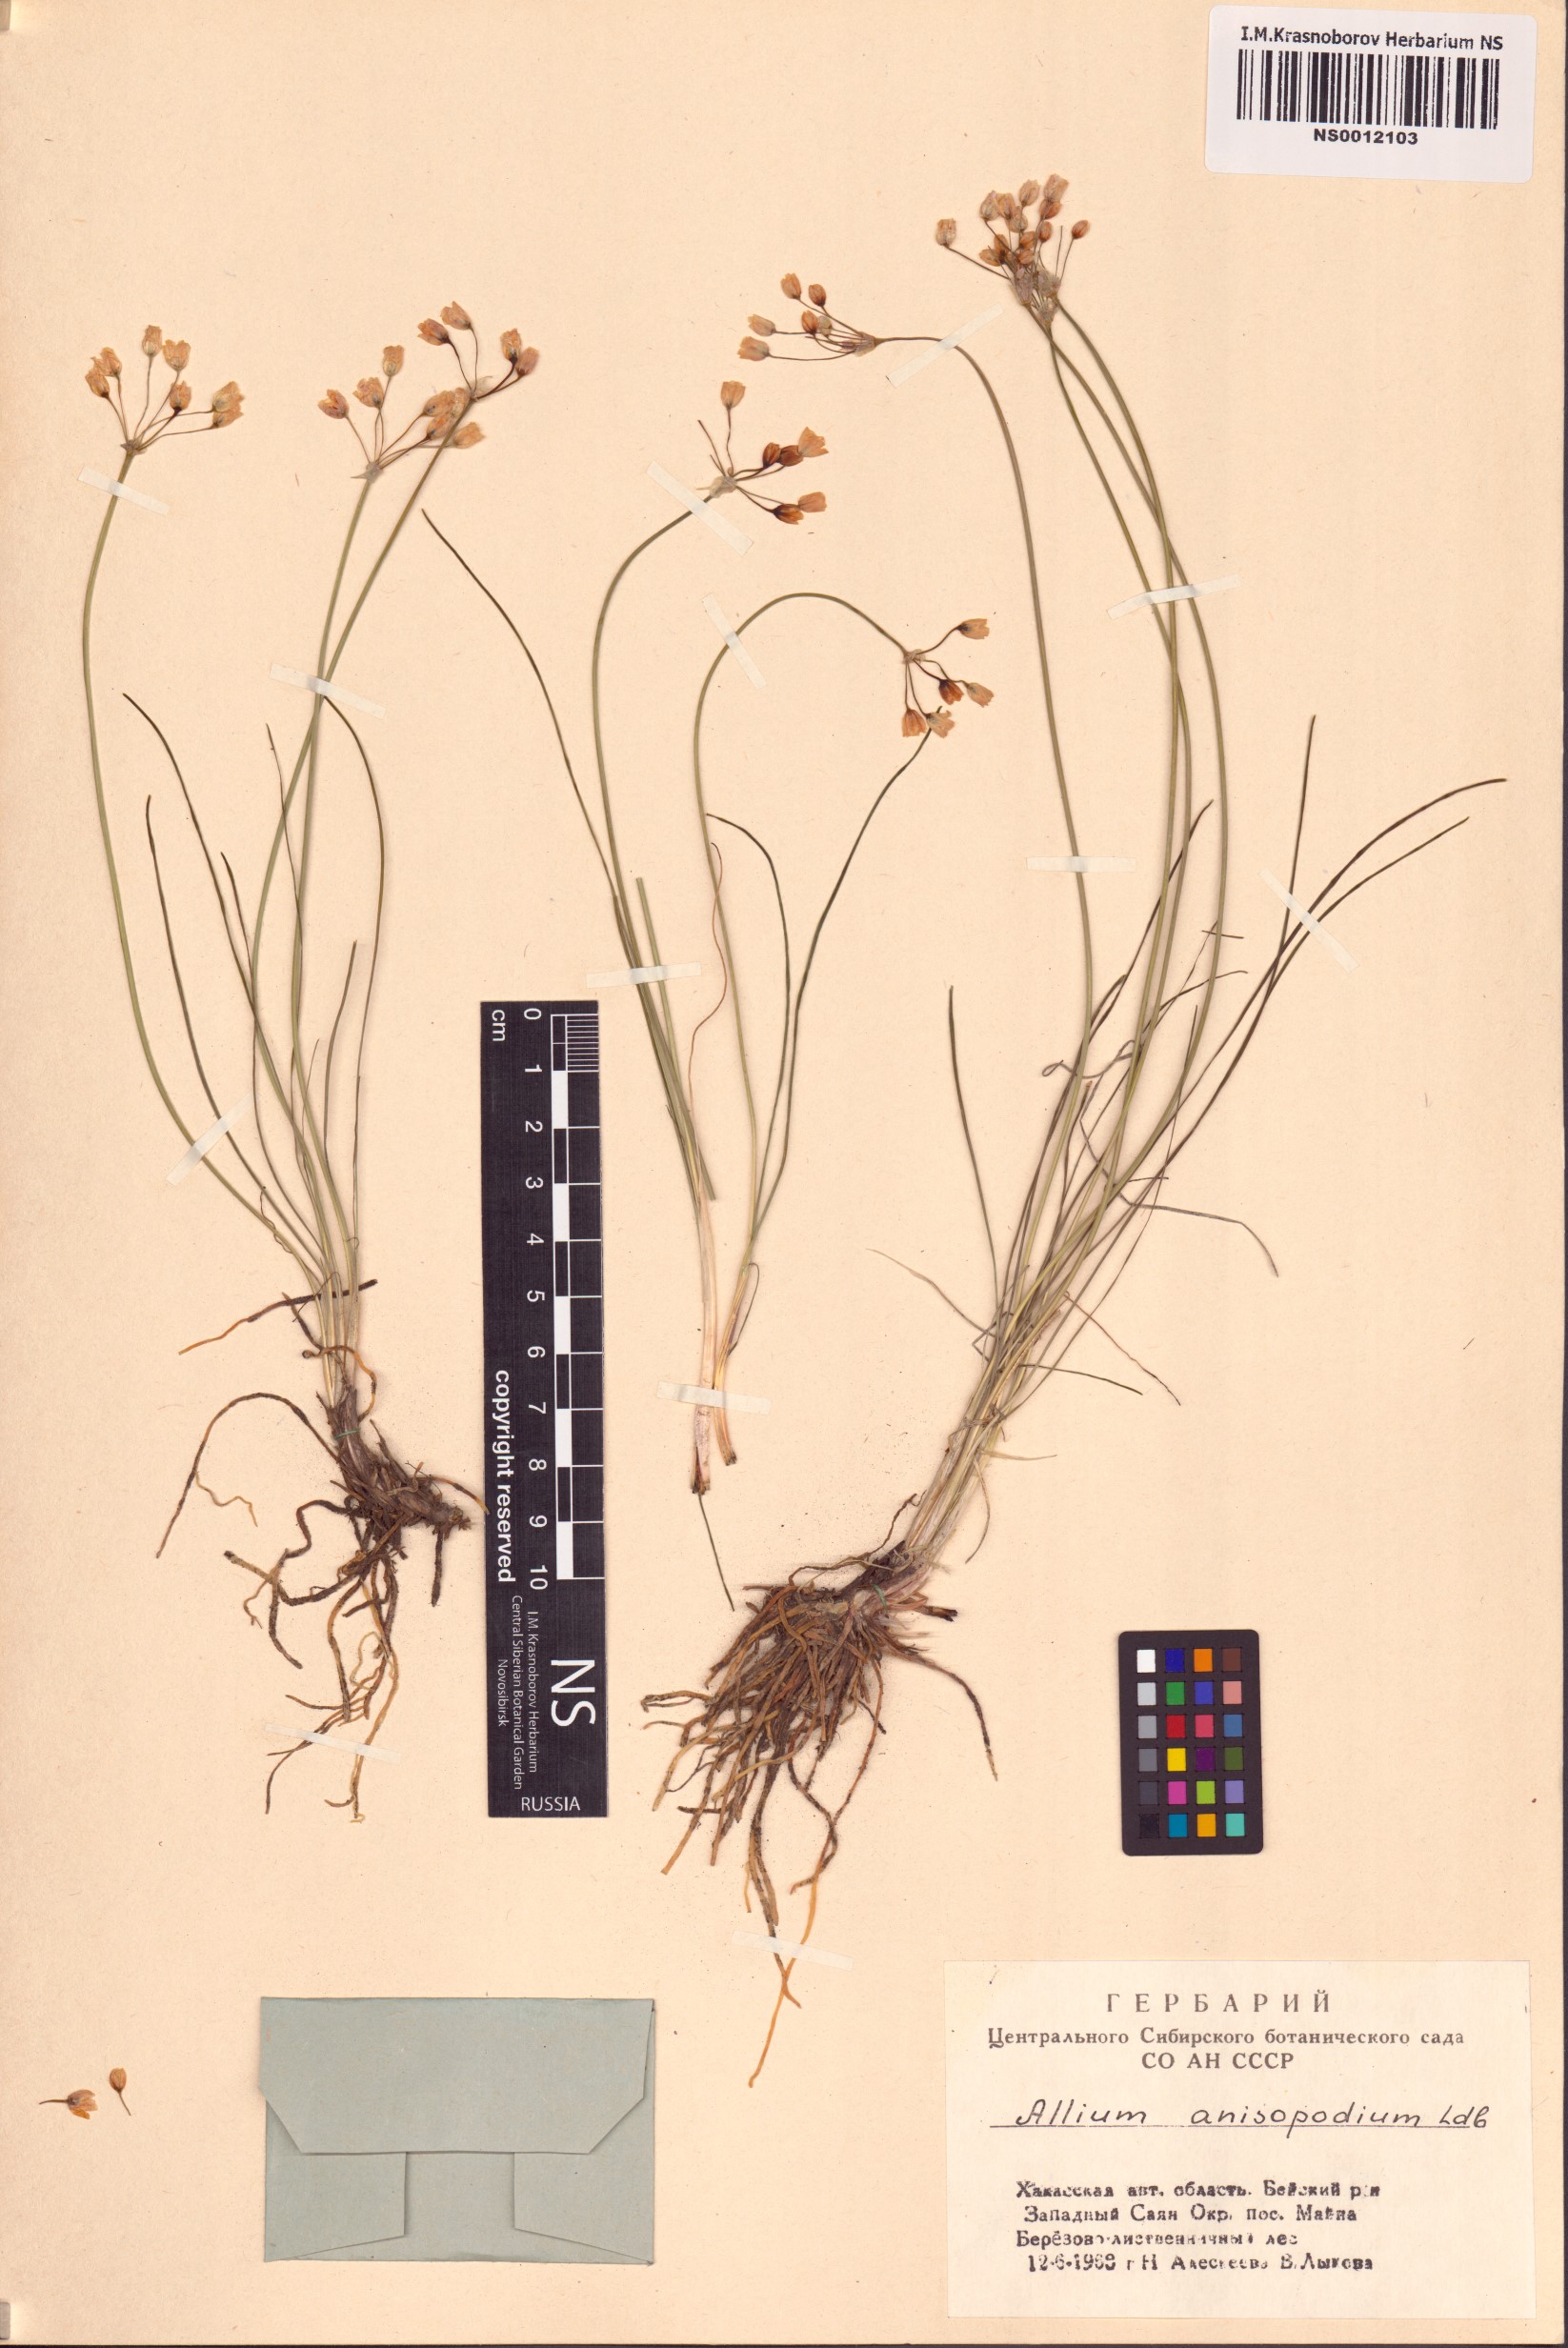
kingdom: Plantae
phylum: Tracheophyta
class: Liliopsida
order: Asparagales
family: Amaryllidaceae
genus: Allium
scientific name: Allium anisopodium
